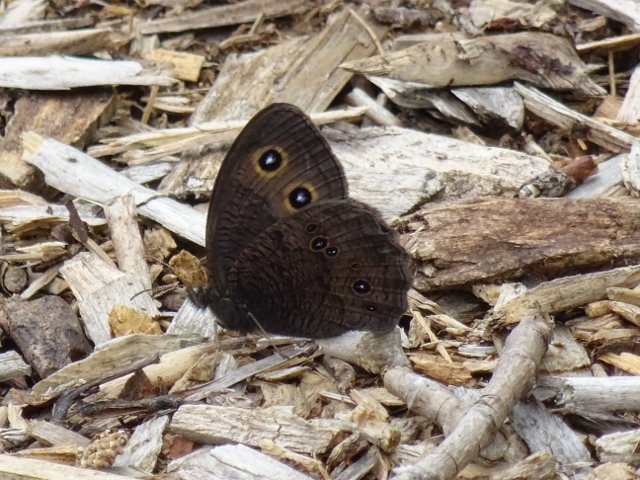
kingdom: Animalia
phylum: Arthropoda
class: Insecta
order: Lepidoptera
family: Nymphalidae
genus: Cercyonis
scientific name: Cercyonis pegala
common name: Common Wood-Nymph
